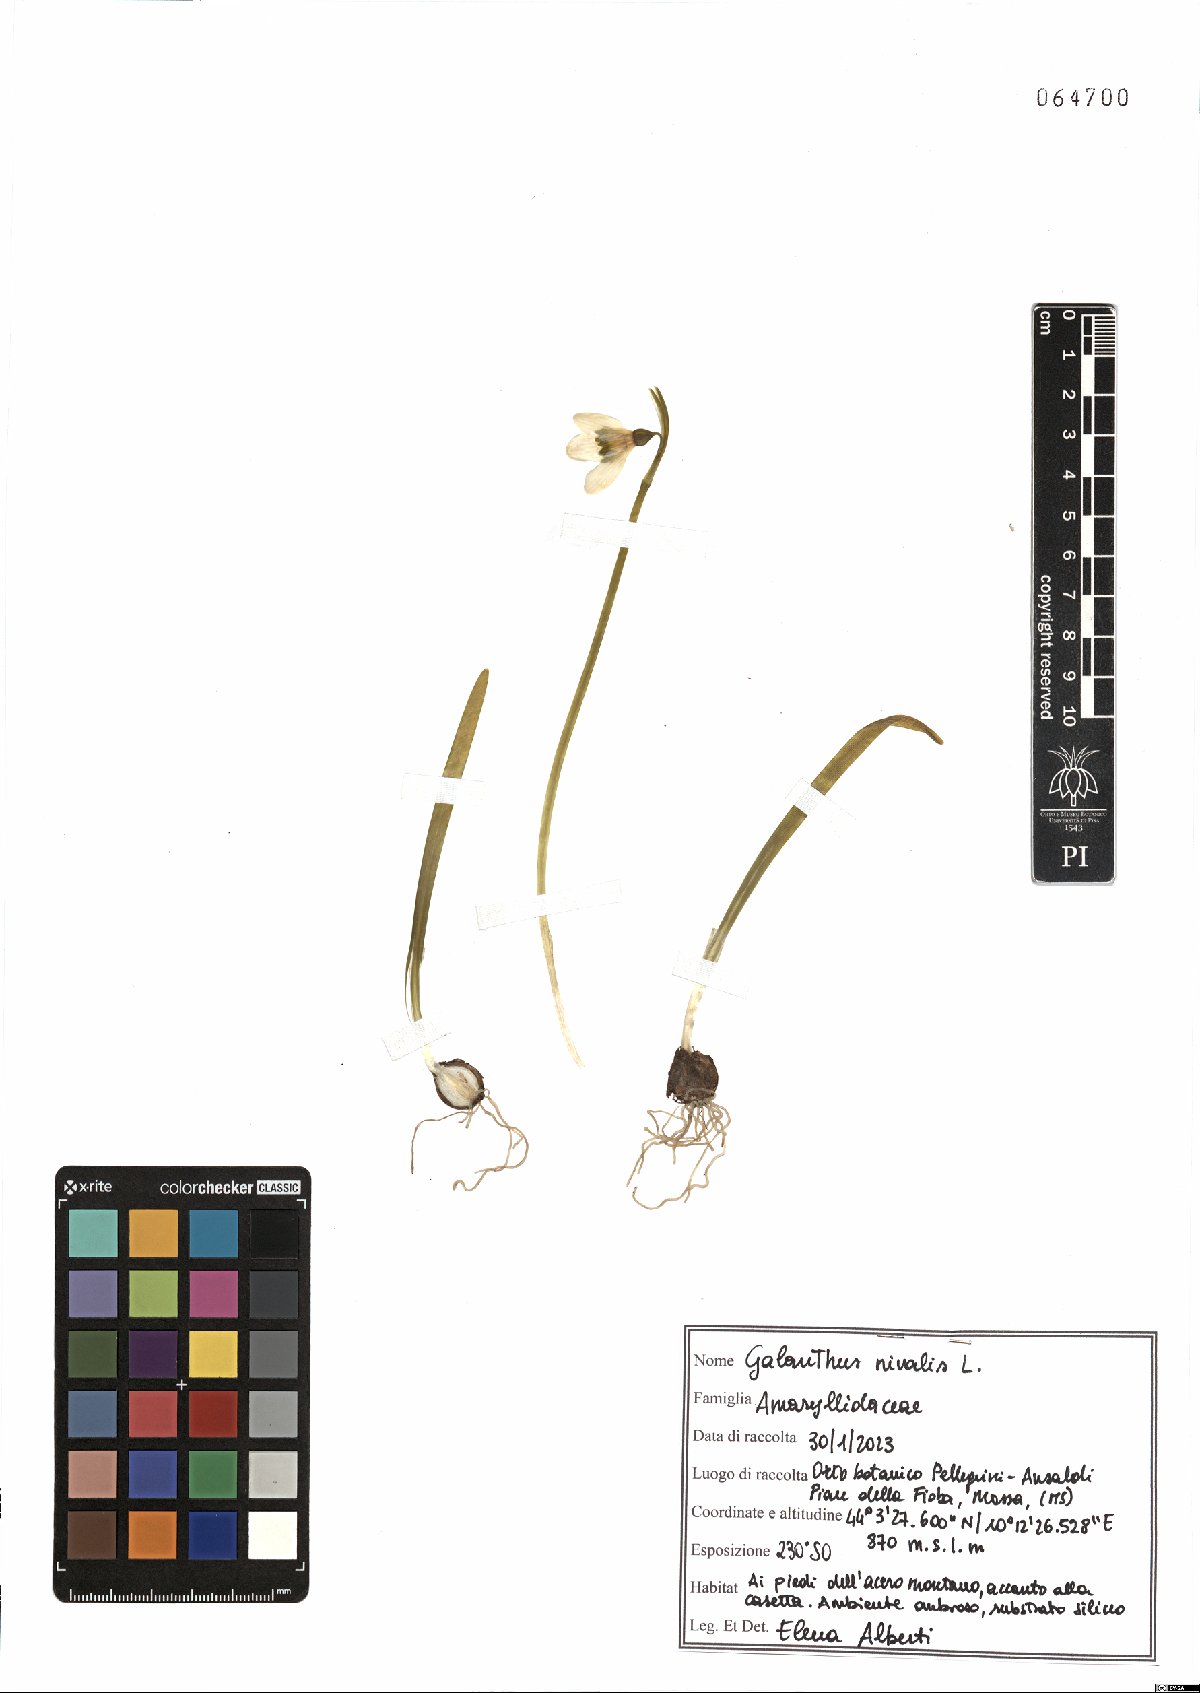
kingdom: Plantae
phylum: Tracheophyta
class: Liliopsida
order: Asparagales
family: Amaryllidaceae
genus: Galanthus
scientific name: Galanthus nivalis
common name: Snowdrop
